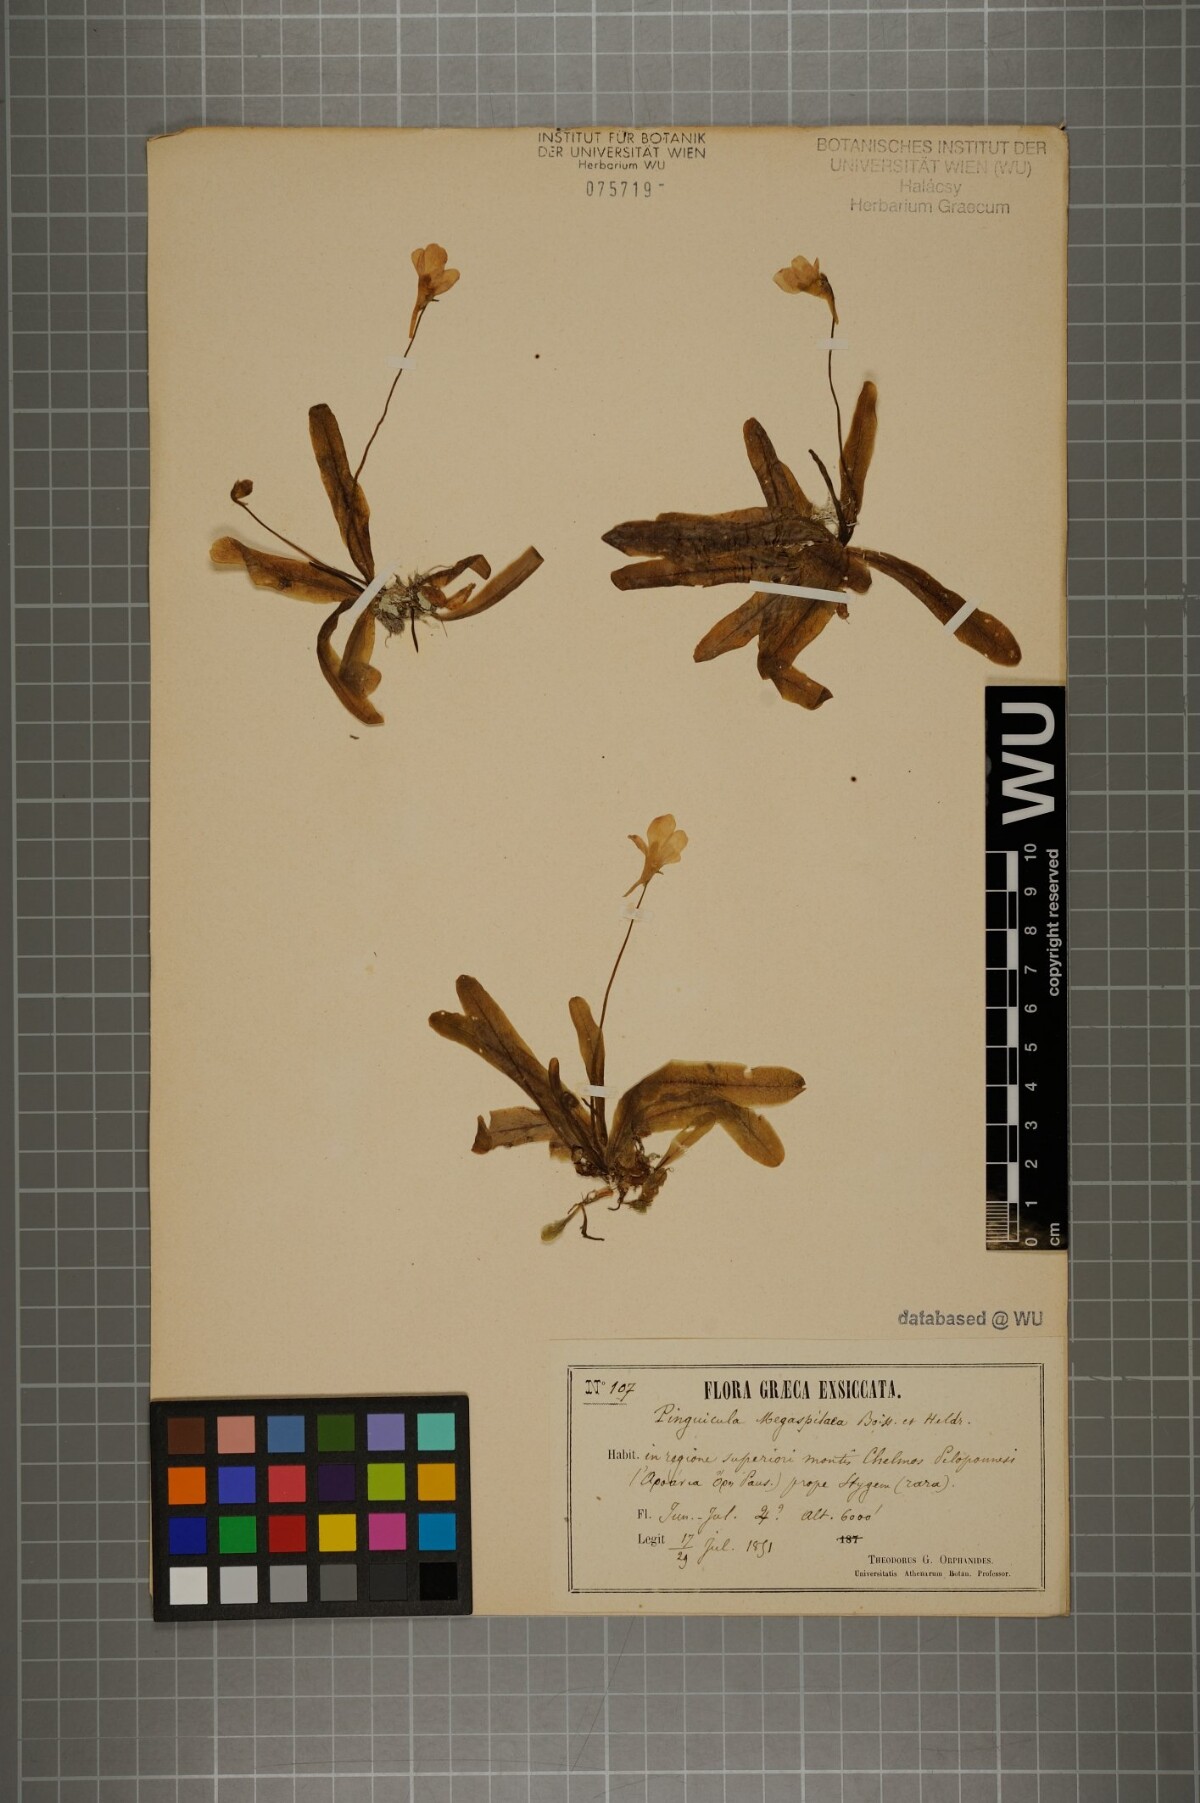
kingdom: Plantae
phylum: Tracheophyta
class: Magnoliopsida
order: Lamiales
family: Lentibulariaceae
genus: Pinguicula
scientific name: Pinguicula crystallina
